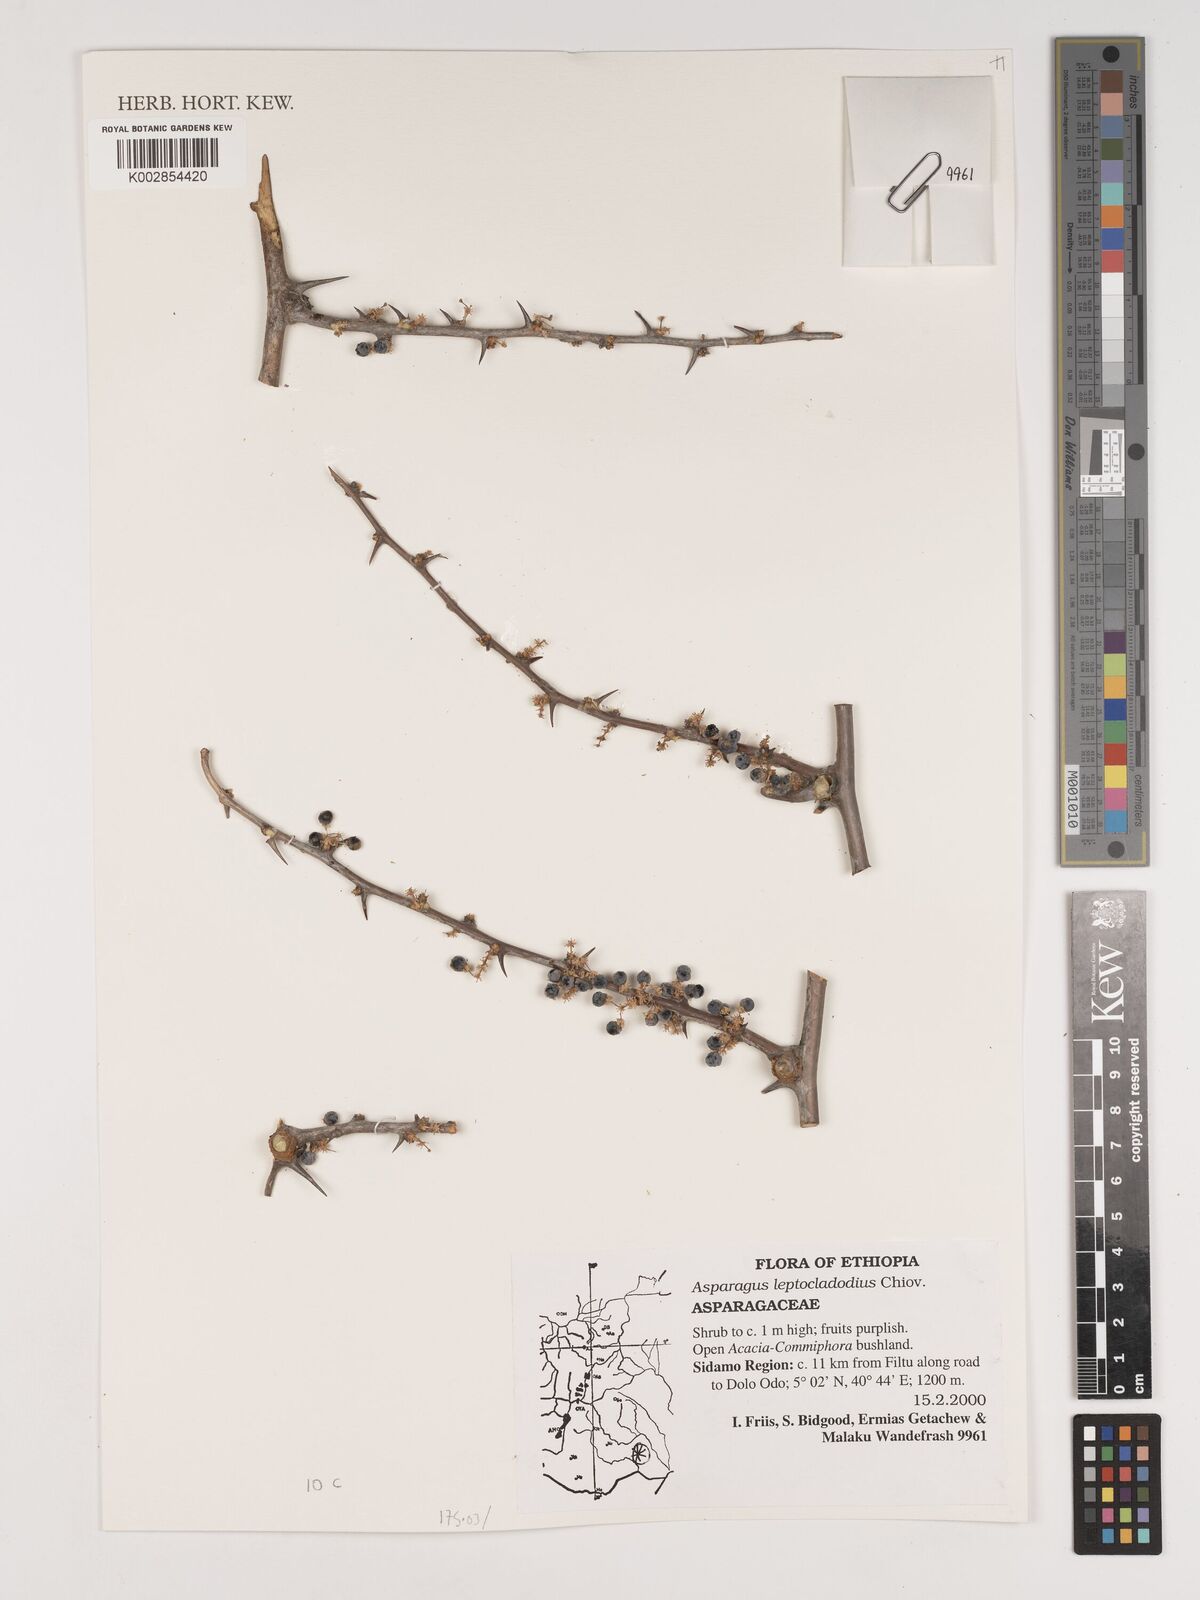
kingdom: Plantae
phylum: Tracheophyta
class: Liliopsida
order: Asparagales
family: Asparagaceae
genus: Asparagus
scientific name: Asparagus leptocladodius
